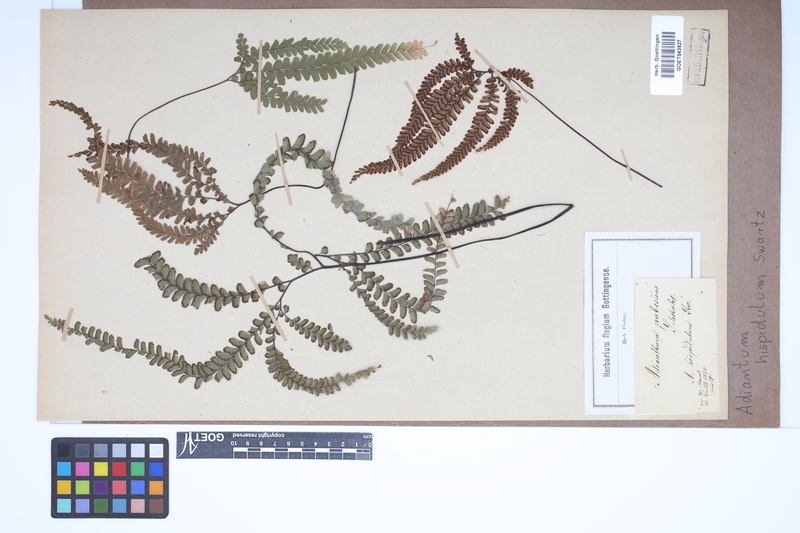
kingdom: Plantae
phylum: Tracheophyta
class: Polypodiopsida
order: Polypodiales
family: Pteridaceae
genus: Adiantum
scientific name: Adiantum hispidulum
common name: Rough maidenhair
